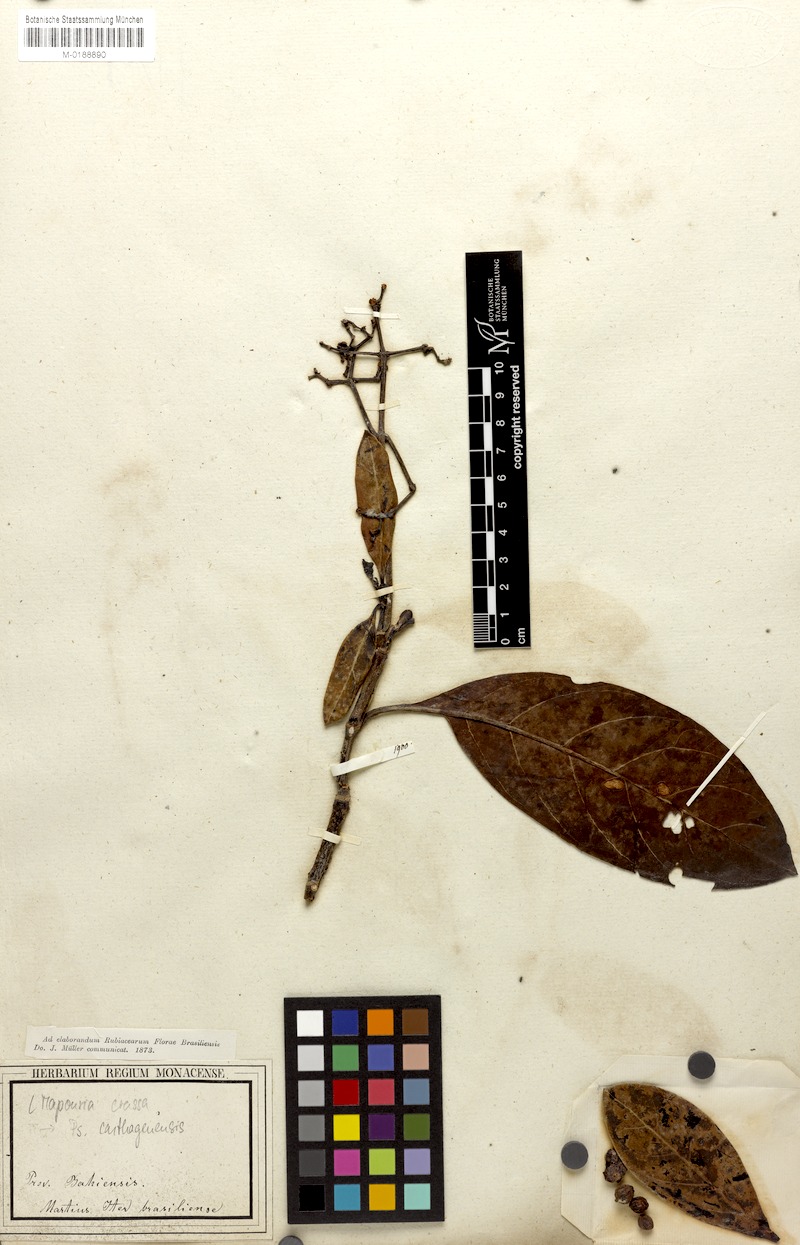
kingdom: Plantae
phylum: Tracheophyta
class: Magnoliopsida
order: Gentianales
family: Rubiaceae
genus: Psychotria
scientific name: Psychotria carthagenensis
